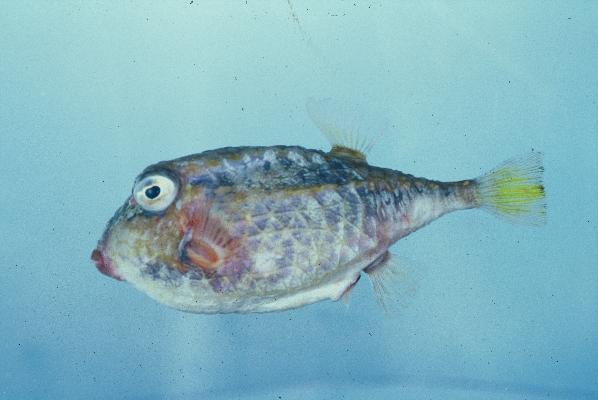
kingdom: Animalia
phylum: Chordata
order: Tetraodontiformes
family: Aracanidae
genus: Kentrocapros
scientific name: Kentrocapros rosapinto
